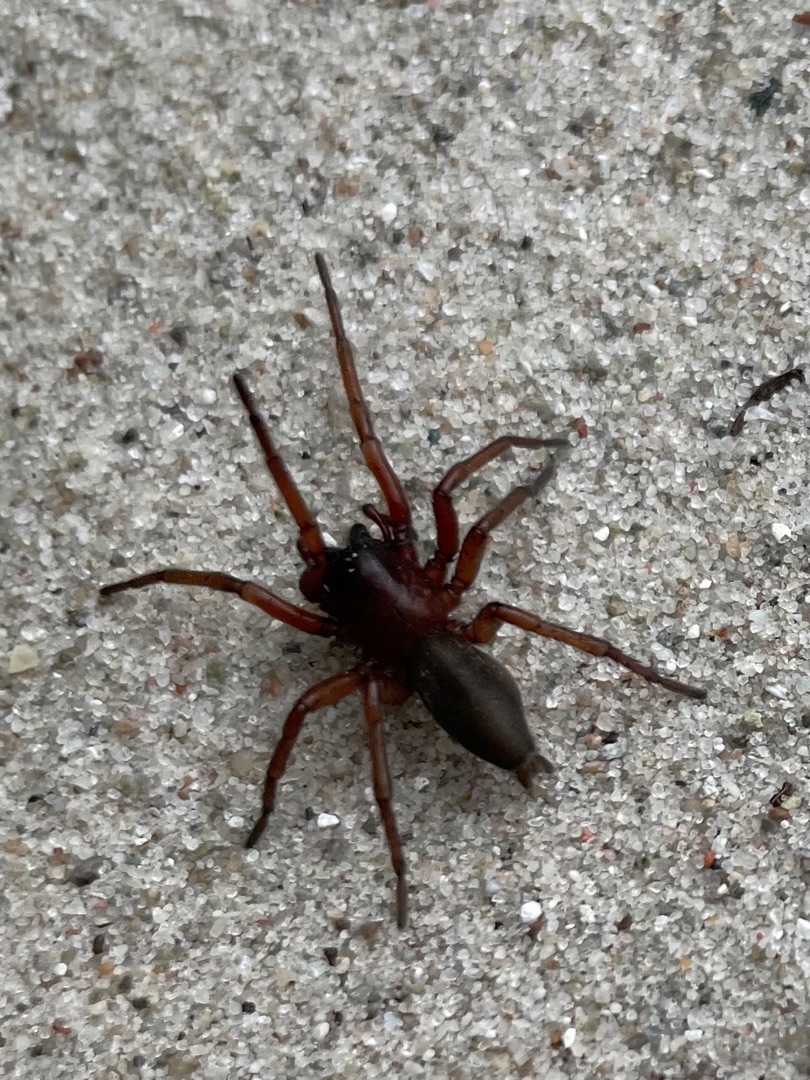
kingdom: Animalia
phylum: Arthropoda
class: Arachnida
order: Araneae
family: Gnaphosidae
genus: Drassodes
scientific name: Drassodes
